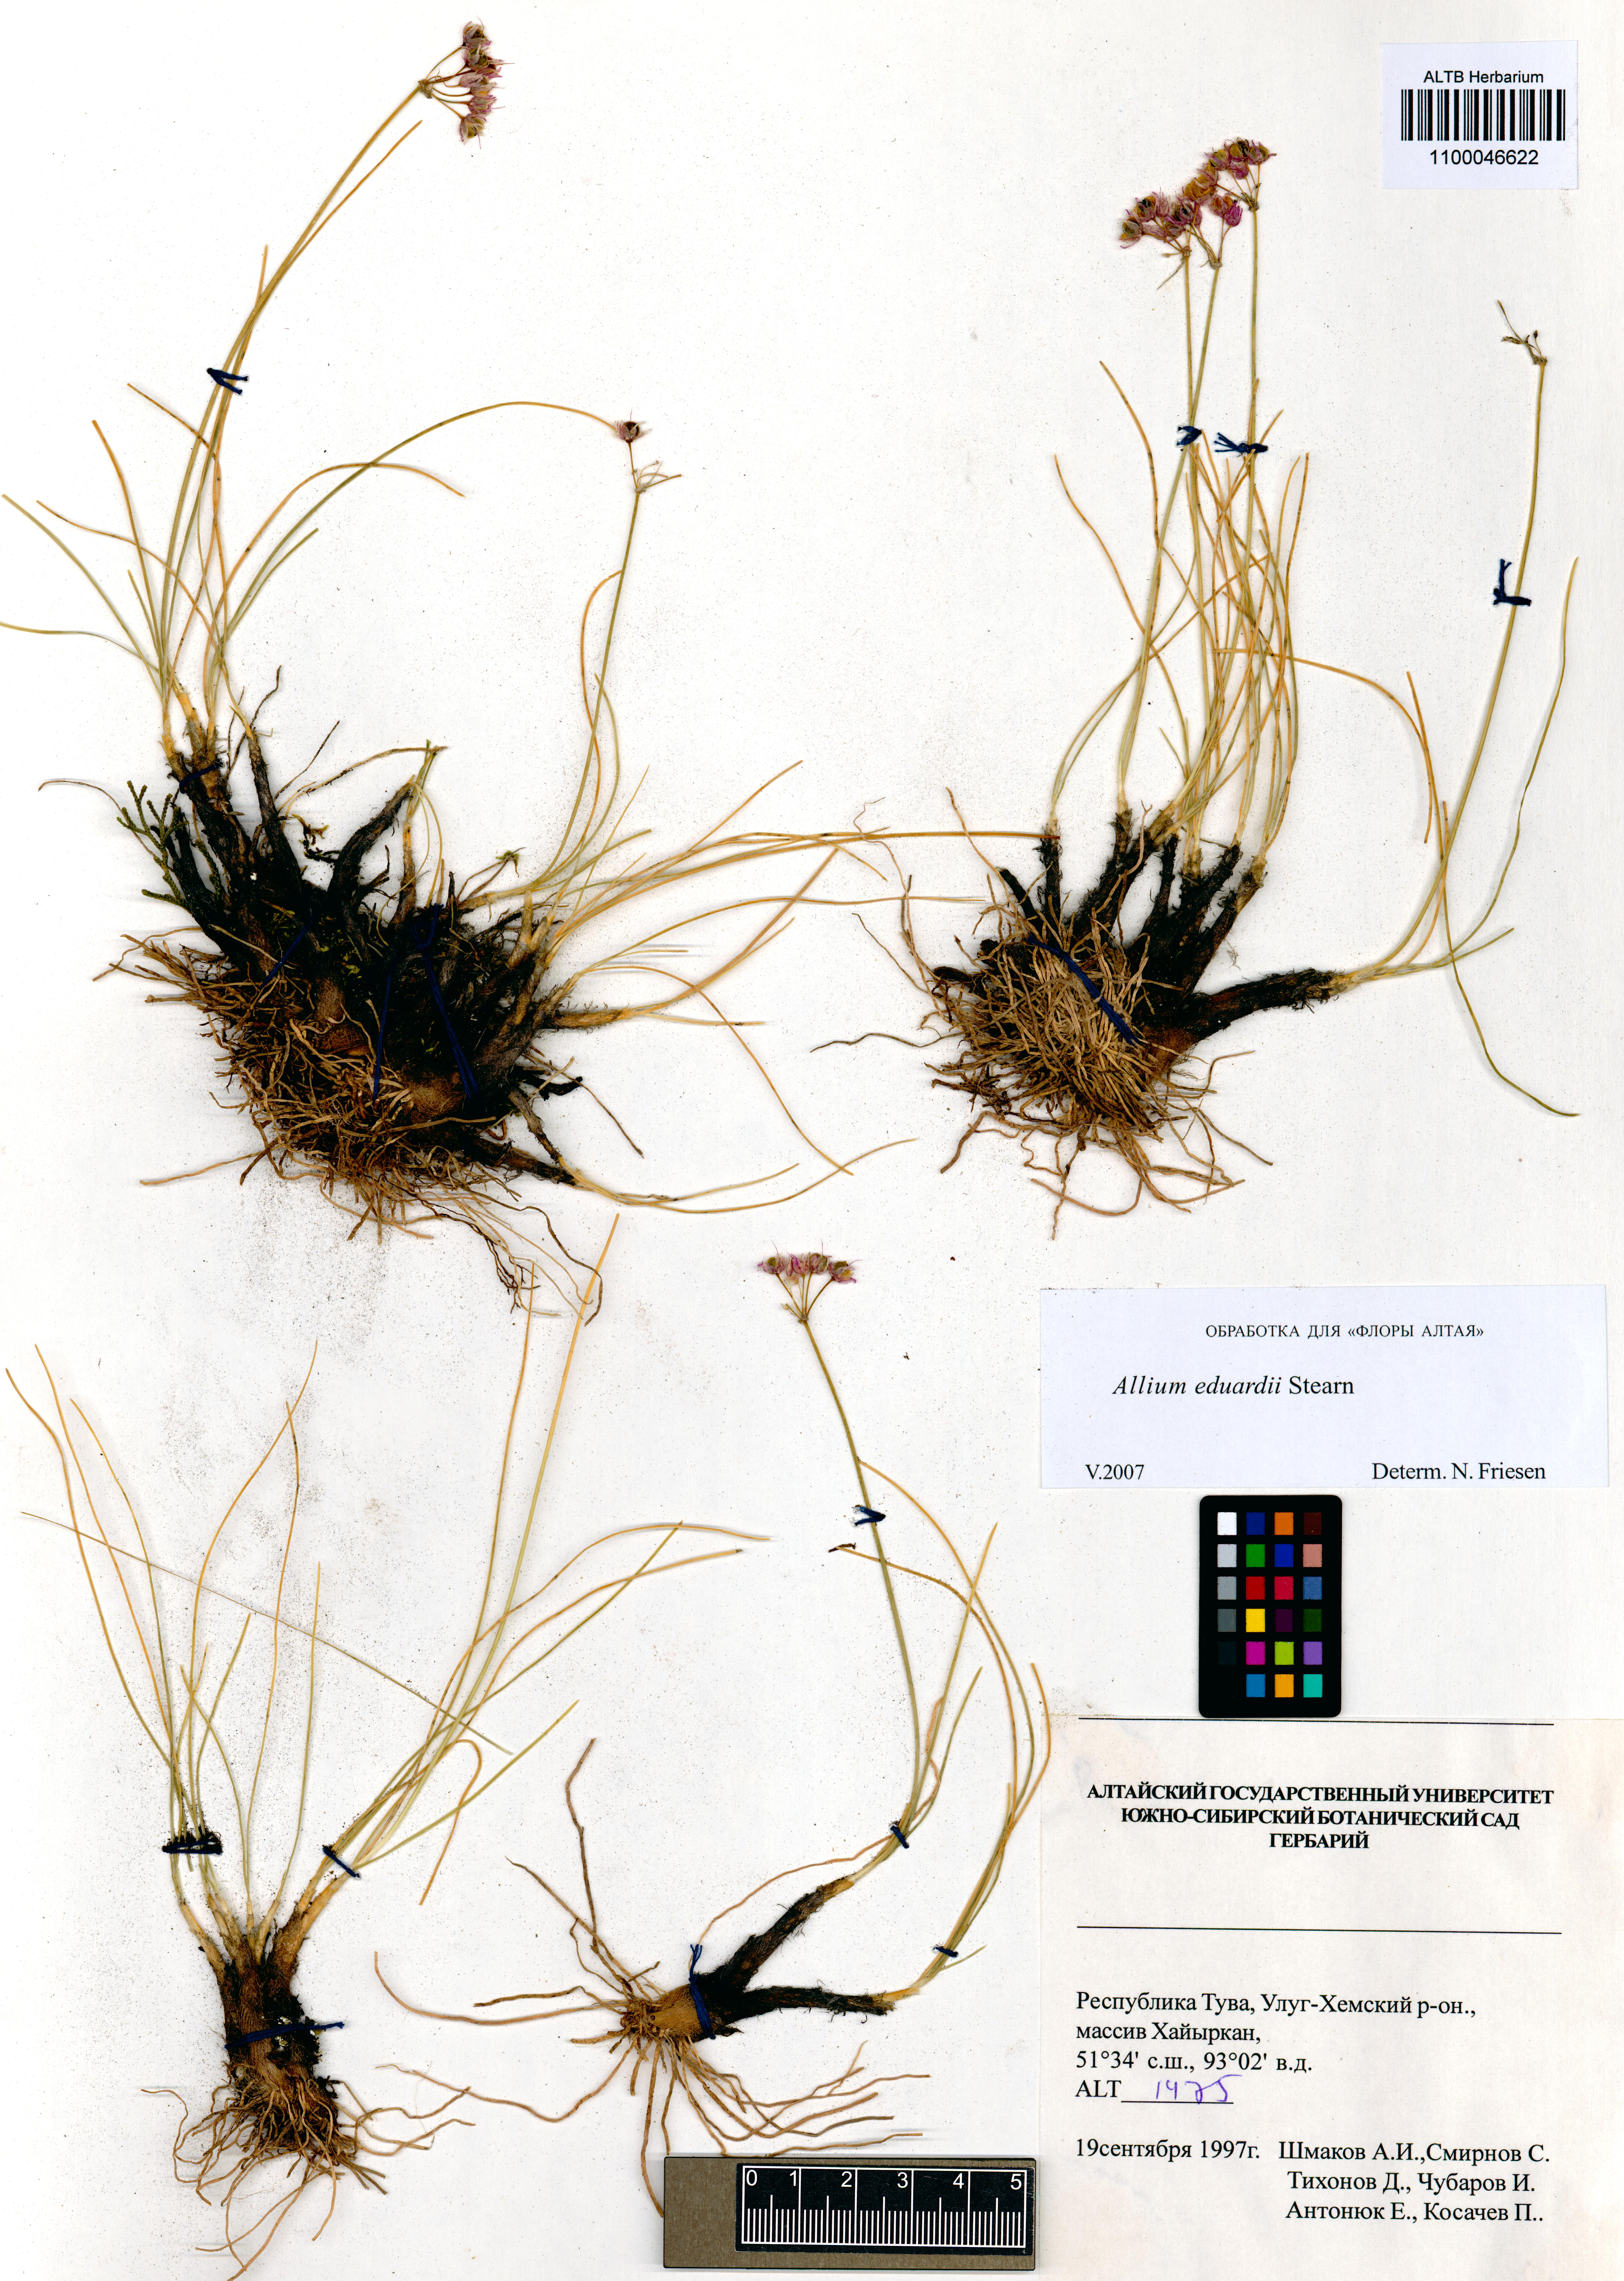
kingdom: Plantae
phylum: Tracheophyta
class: Liliopsida
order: Asparagales
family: Amaryllidaceae
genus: Allium
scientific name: Allium eduardi
